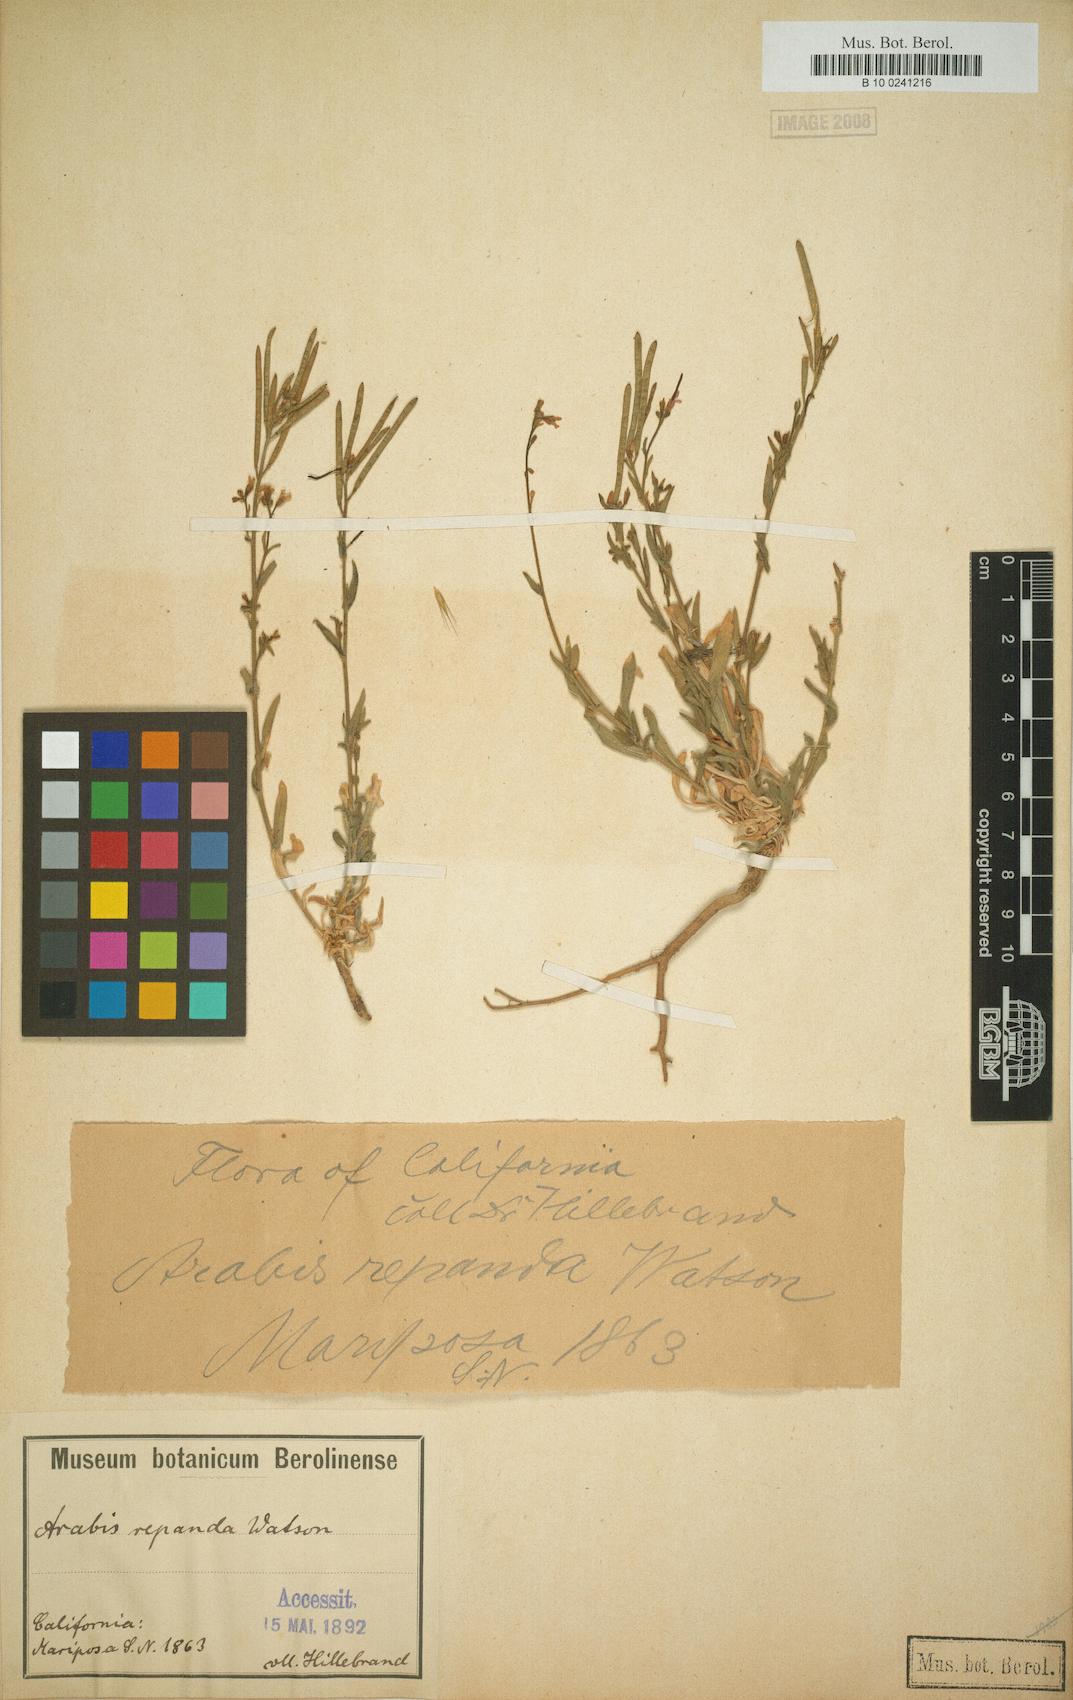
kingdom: Plantae
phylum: Tracheophyta
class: Magnoliopsida
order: Brassicales
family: Brassicaceae
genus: Yosemitea
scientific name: Yosemitea repanda
